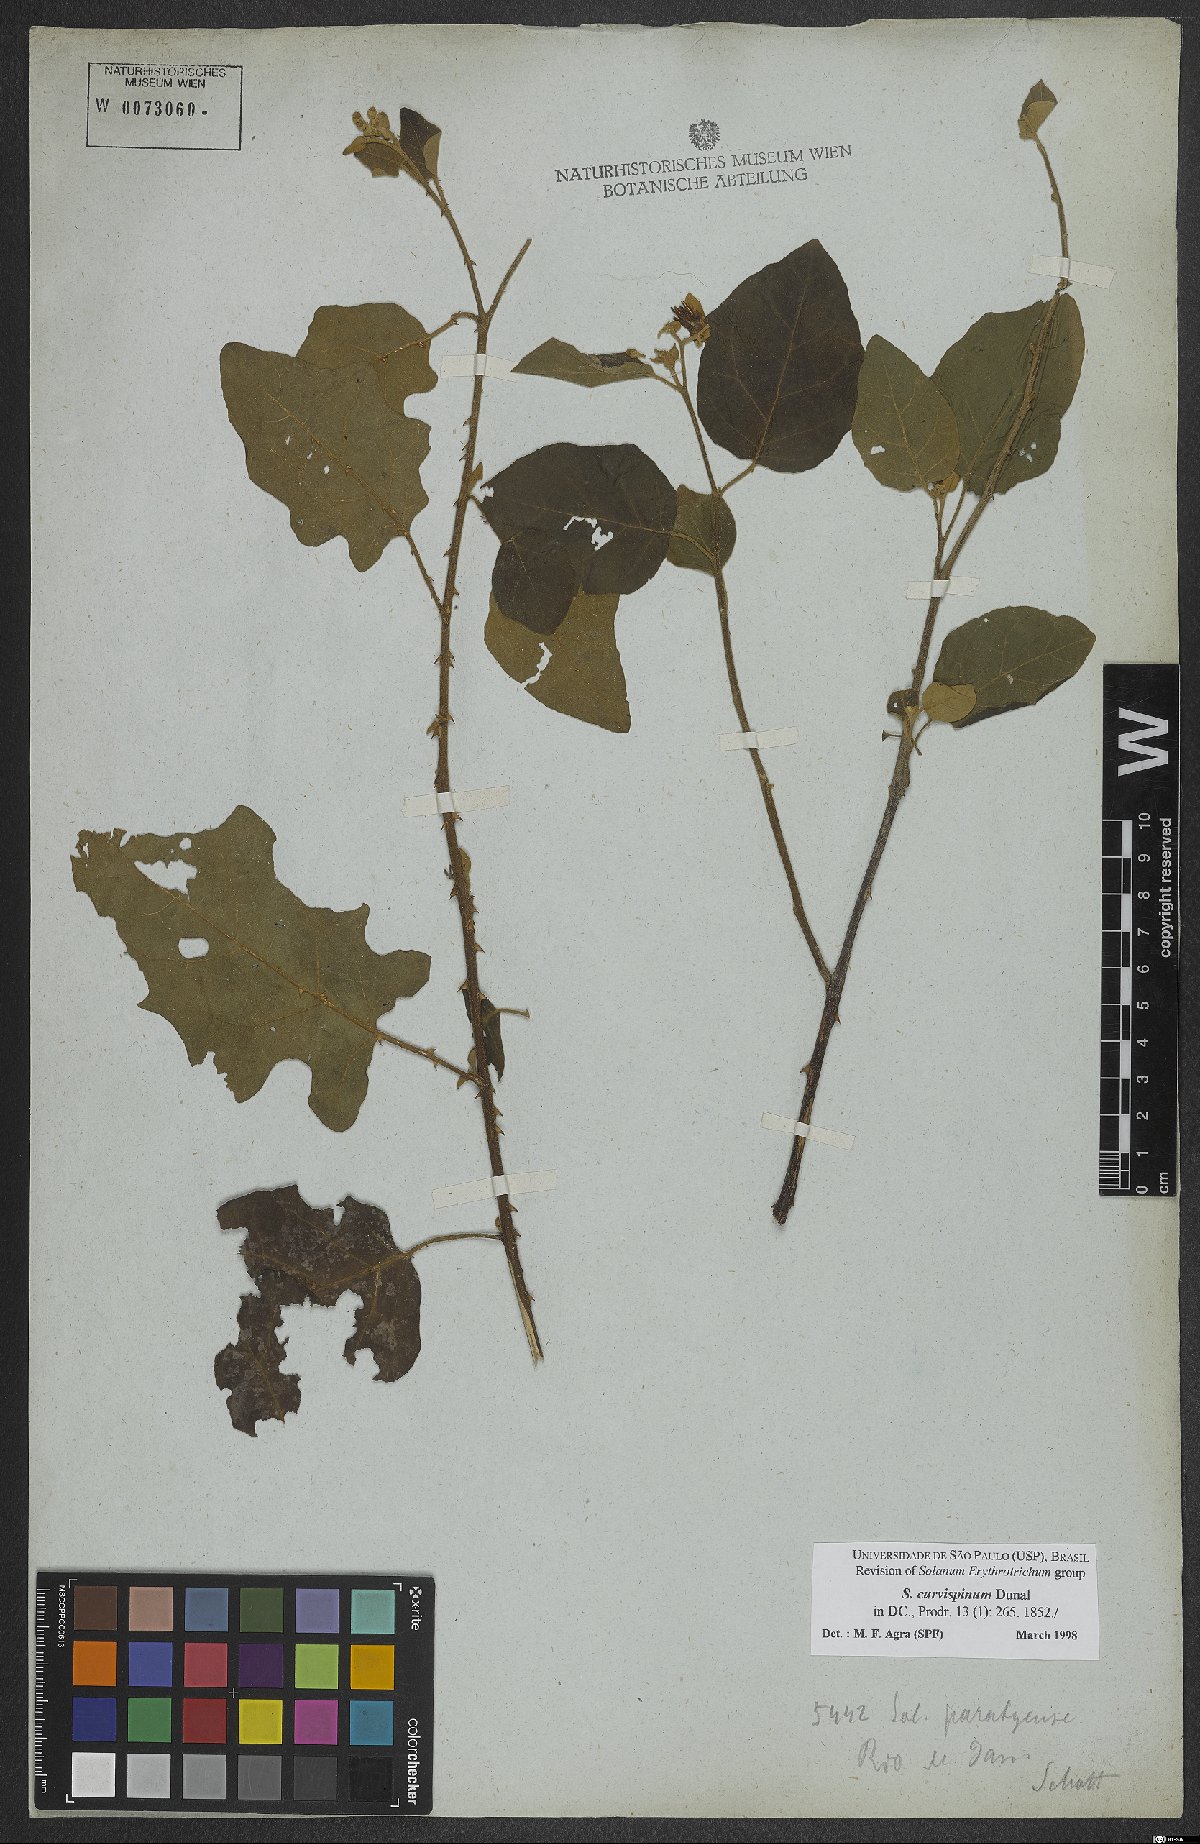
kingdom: Plantae
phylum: Tracheophyta
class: Magnoliopsida
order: Solanales
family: Solanaceae
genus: Solanum
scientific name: Solanum jussiaei
